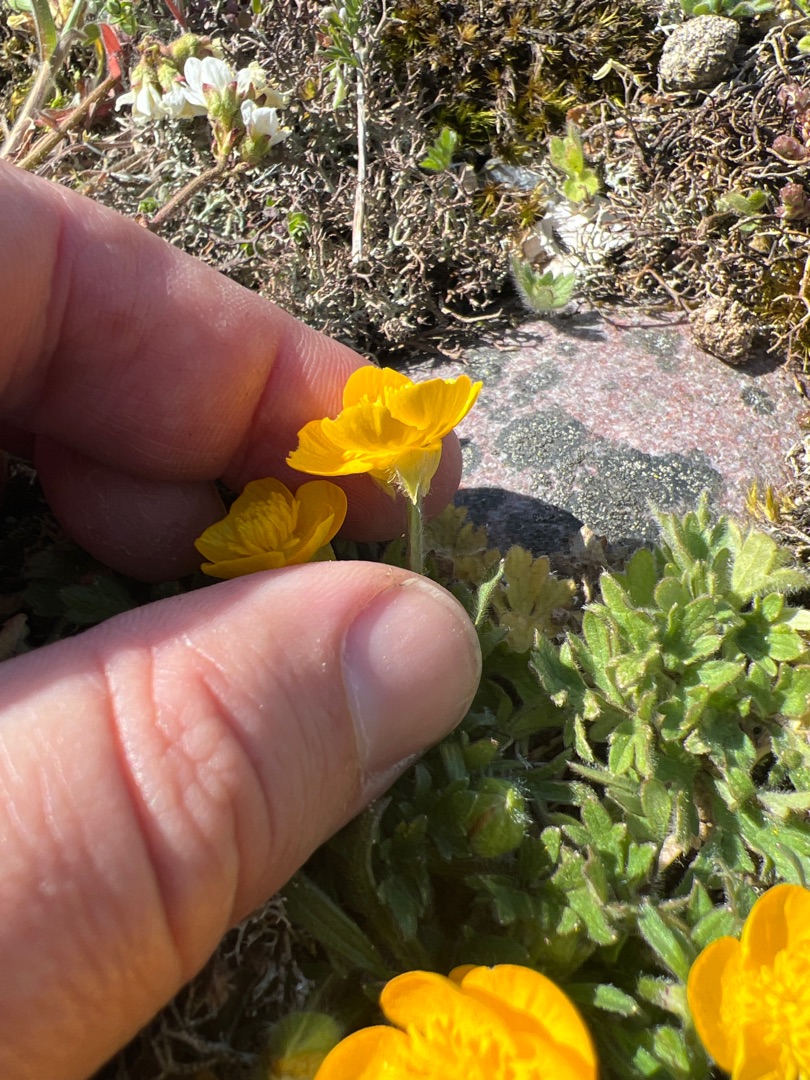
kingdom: Plantae
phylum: Tracheophyta
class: Magnoliopsida
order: Ranunculales
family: Ranunculaceae
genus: Ranunculus
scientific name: Ranunculus bulbosus
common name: Knold-ranunkel
